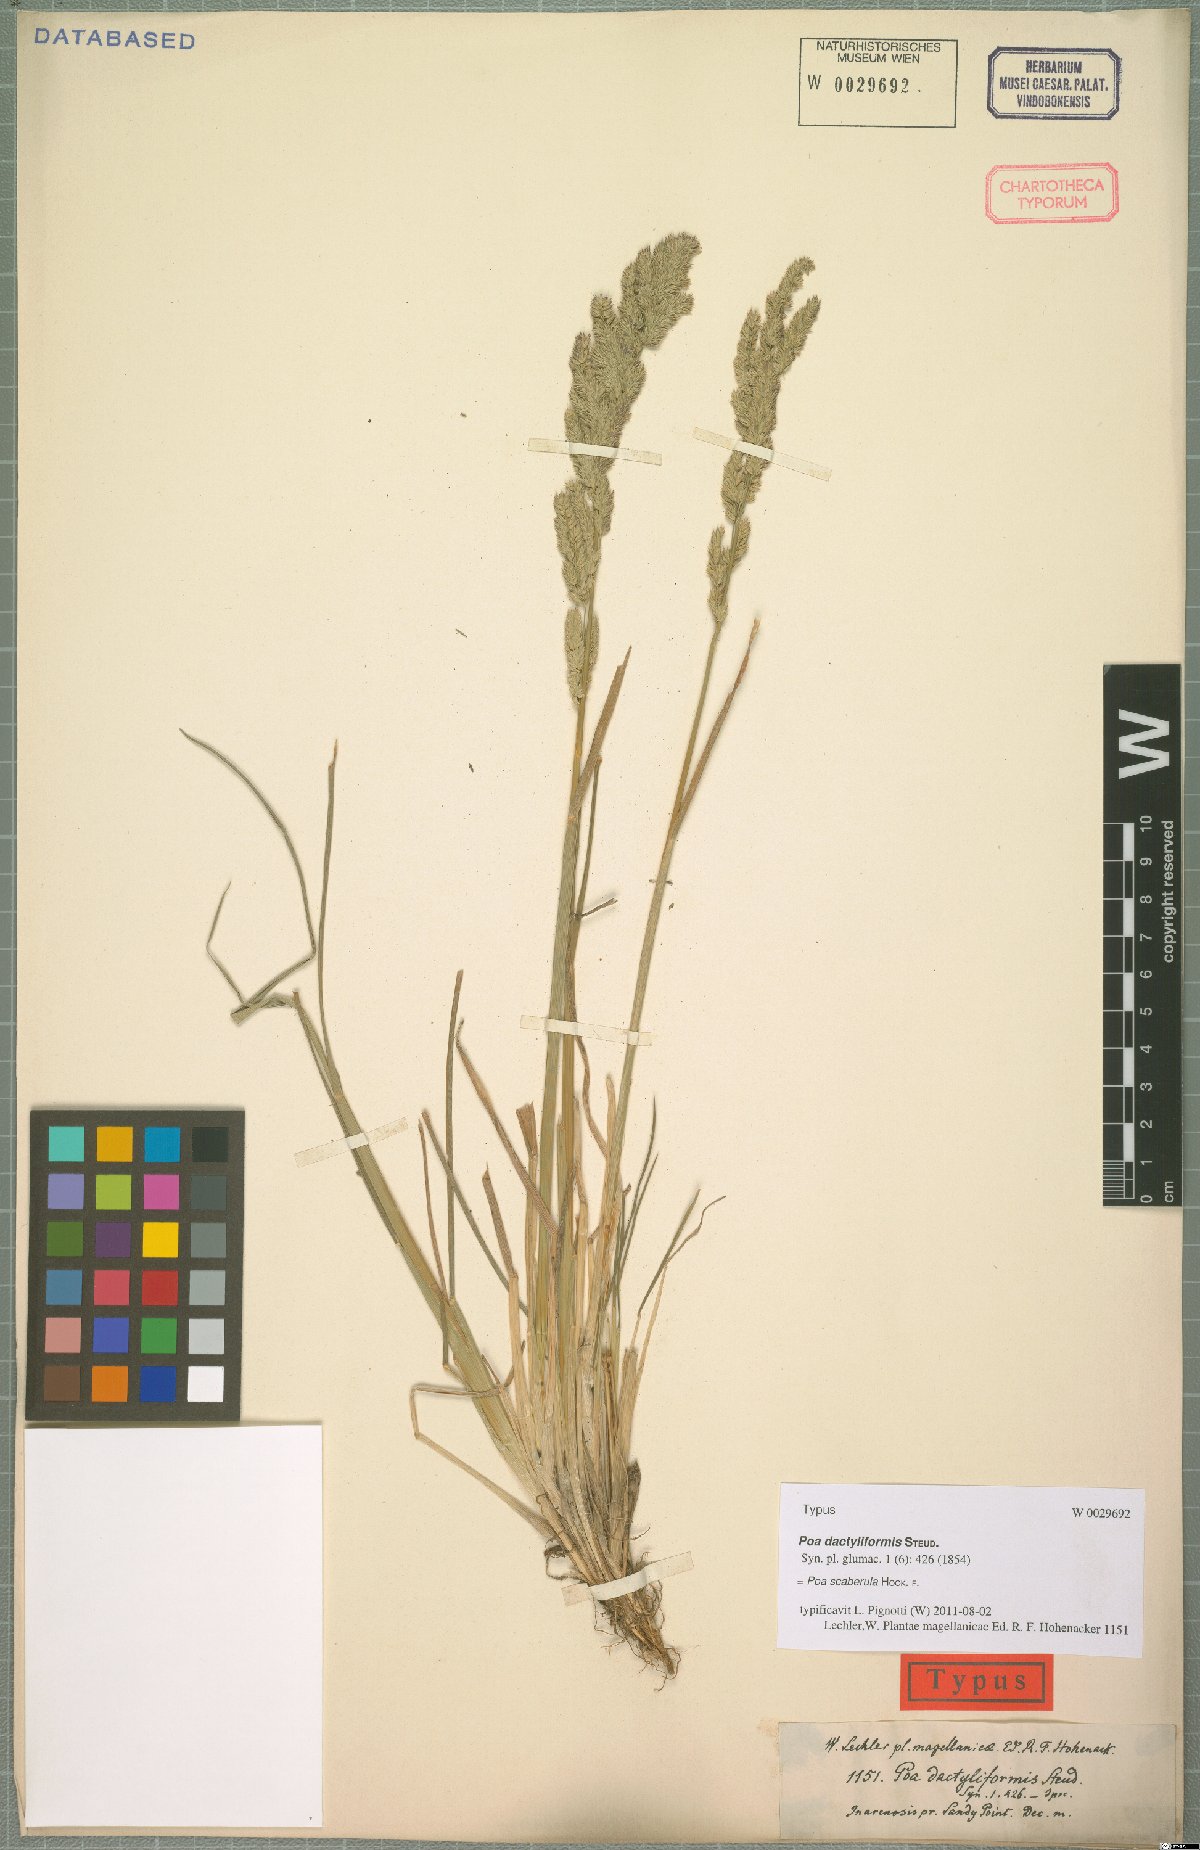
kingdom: Plantae
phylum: Tracheophyta
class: Liliopsida
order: Poales
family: Poaceae
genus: Poa
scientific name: Poa scaberula
